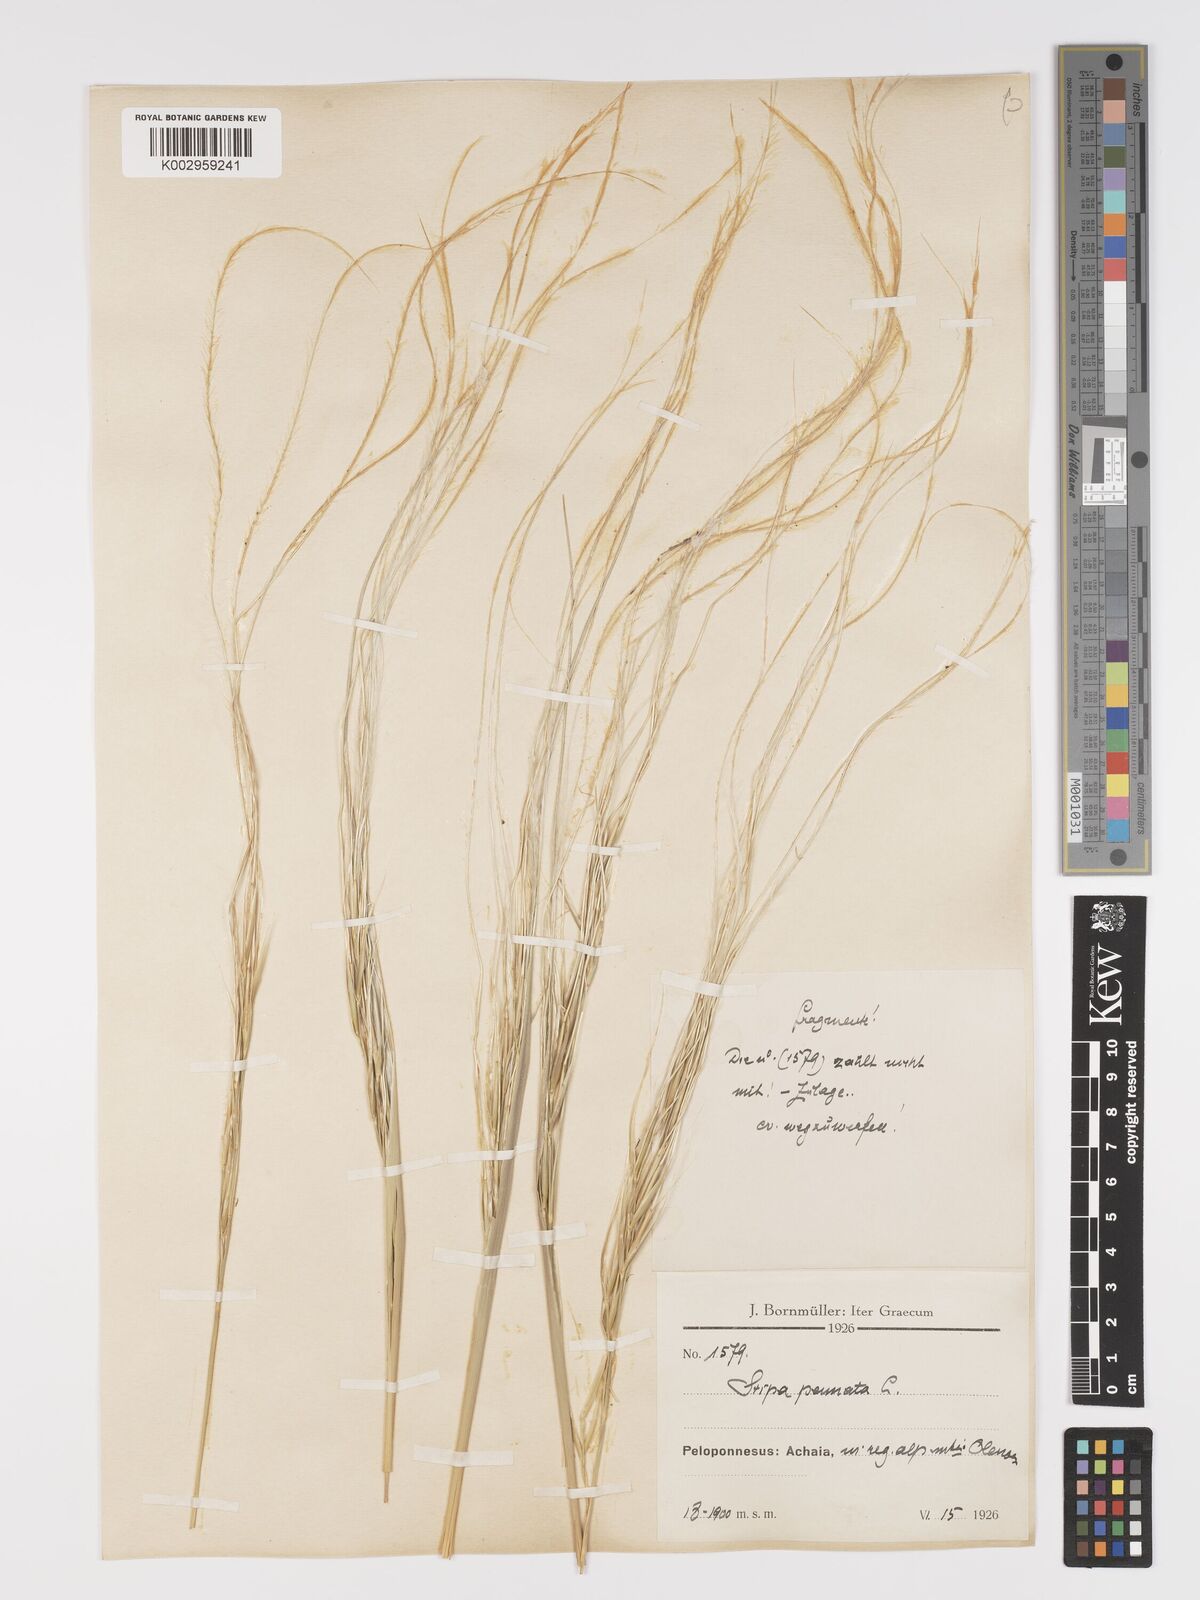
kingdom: Plantae
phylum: Tracheophyta
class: Liliopsida
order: Poales
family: Poaceae
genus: Stipa
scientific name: Stipa pennata
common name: European feather grass
